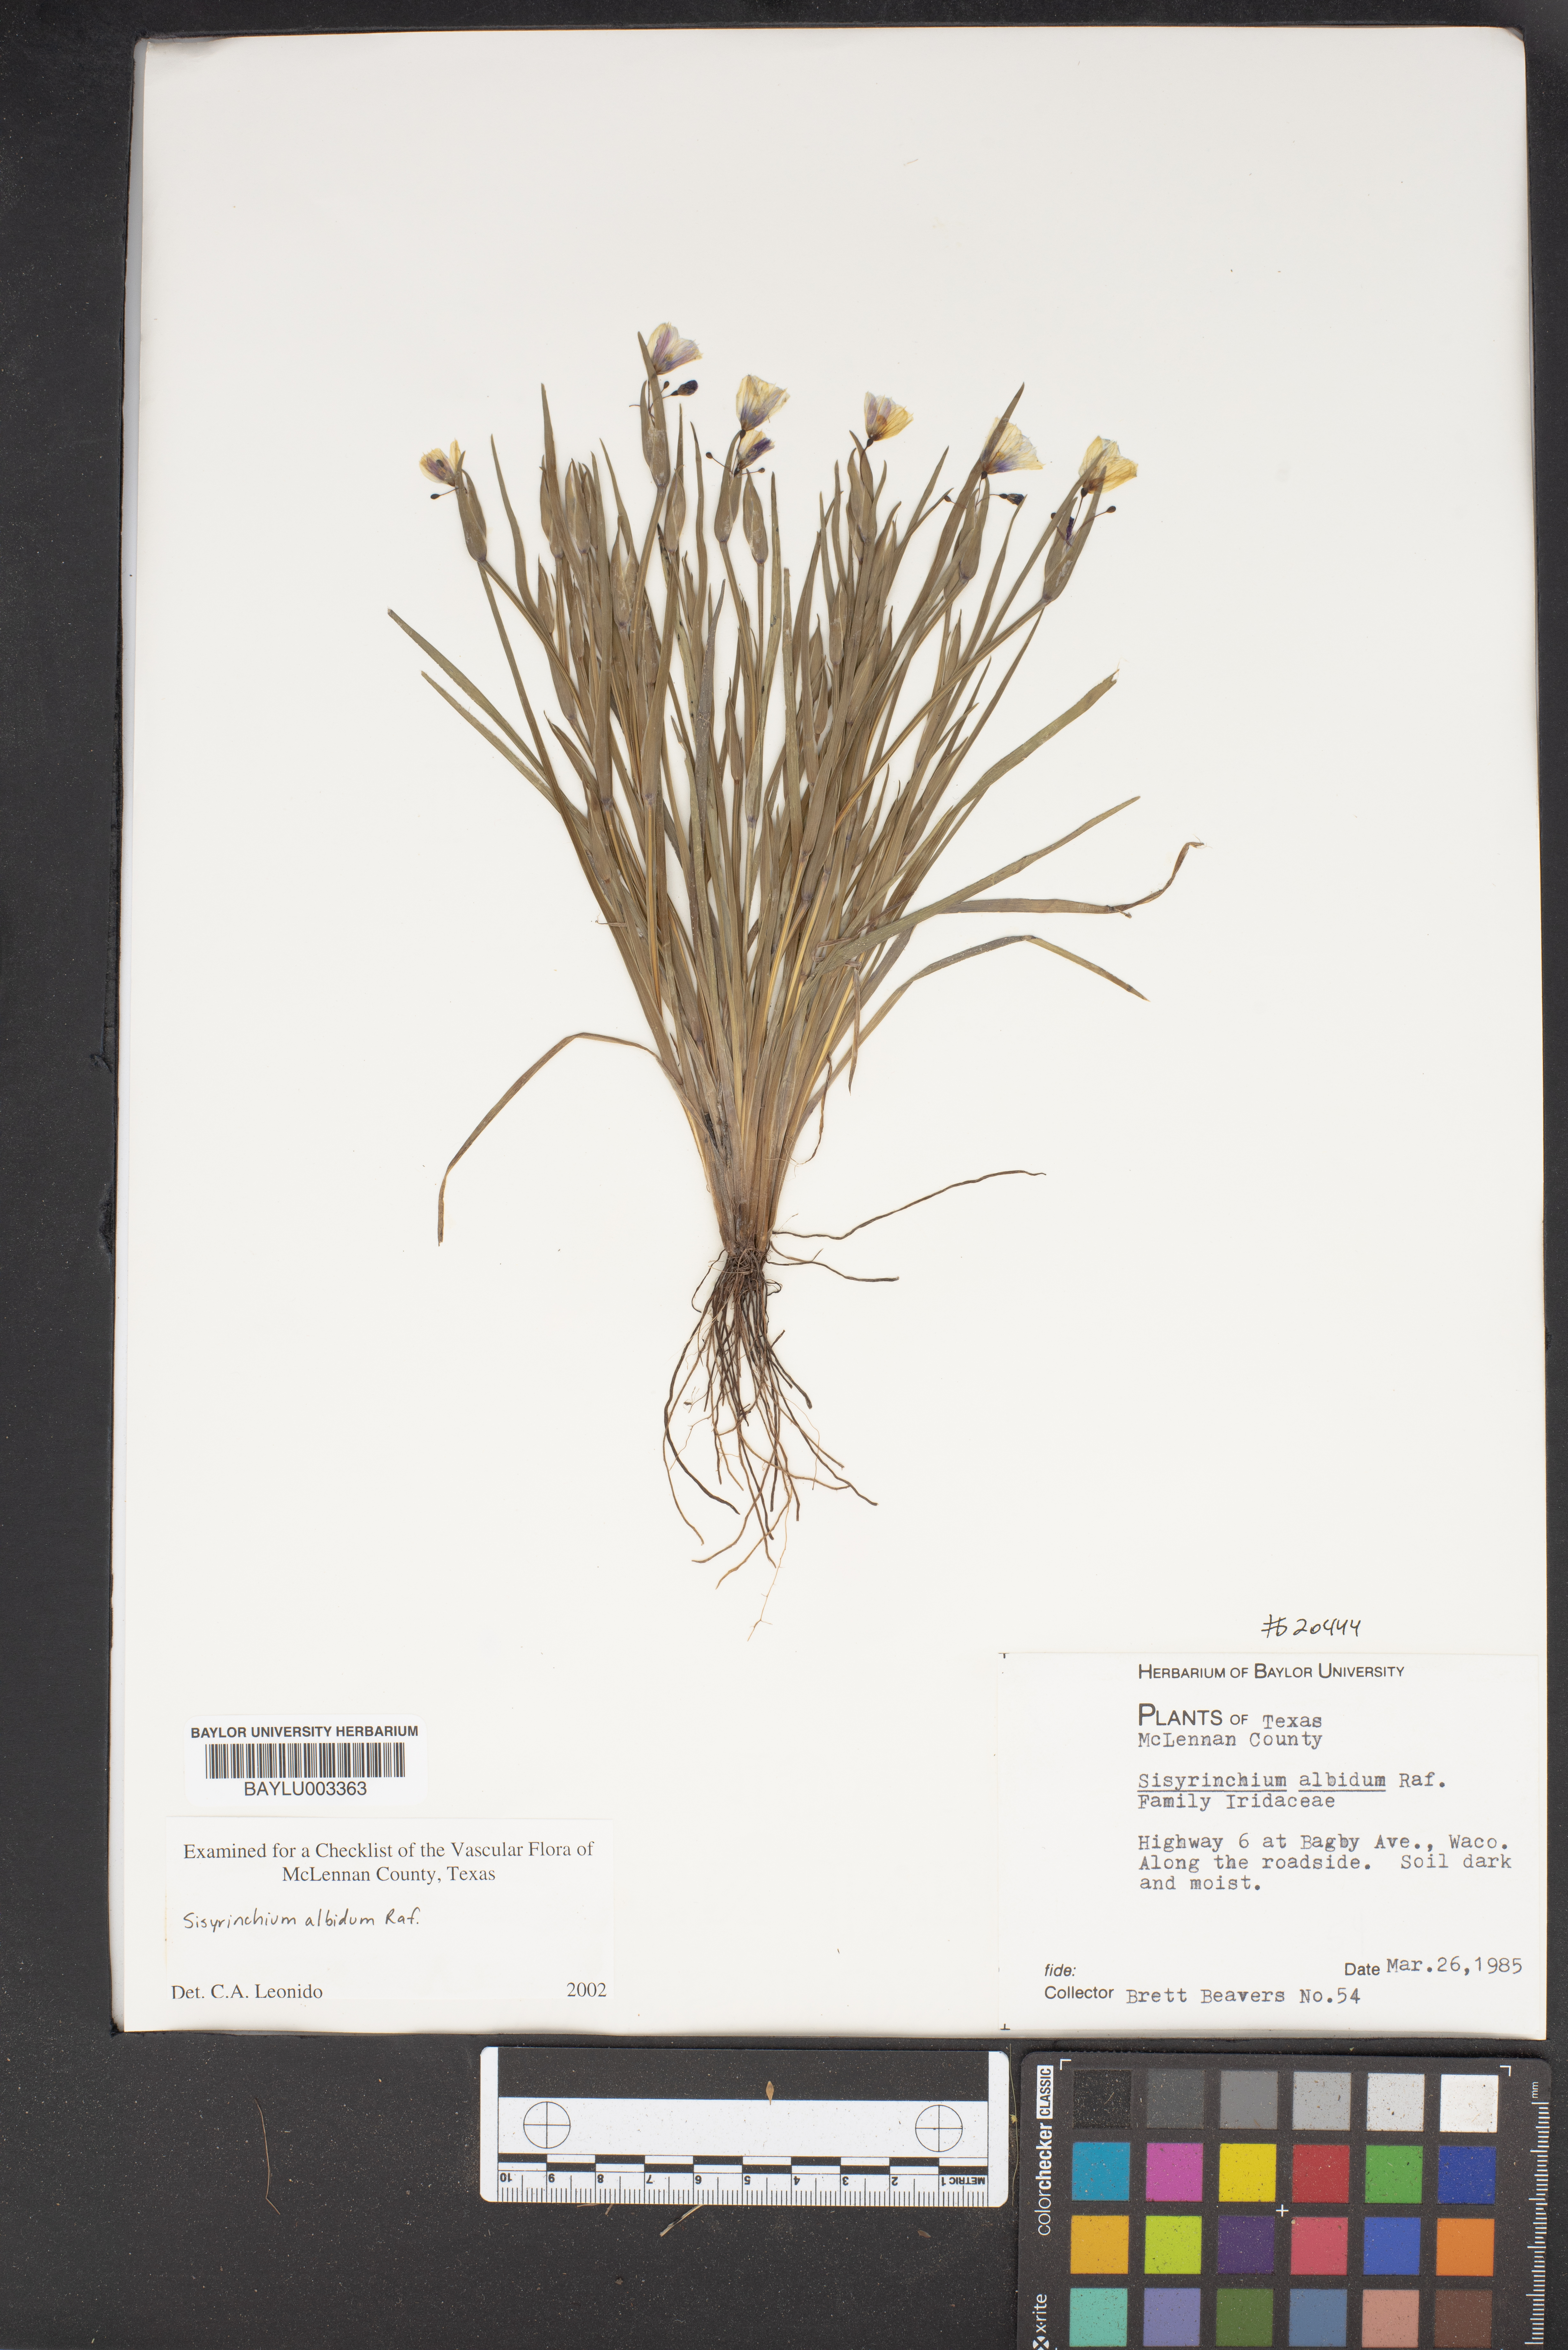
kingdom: Plantae
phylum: Tracheophyta
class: Liliopsida
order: Asparagales
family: Iridaceae
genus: Sisyrinchium
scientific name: Sisyrinchium albidum
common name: Pale blue-eyed-grass
